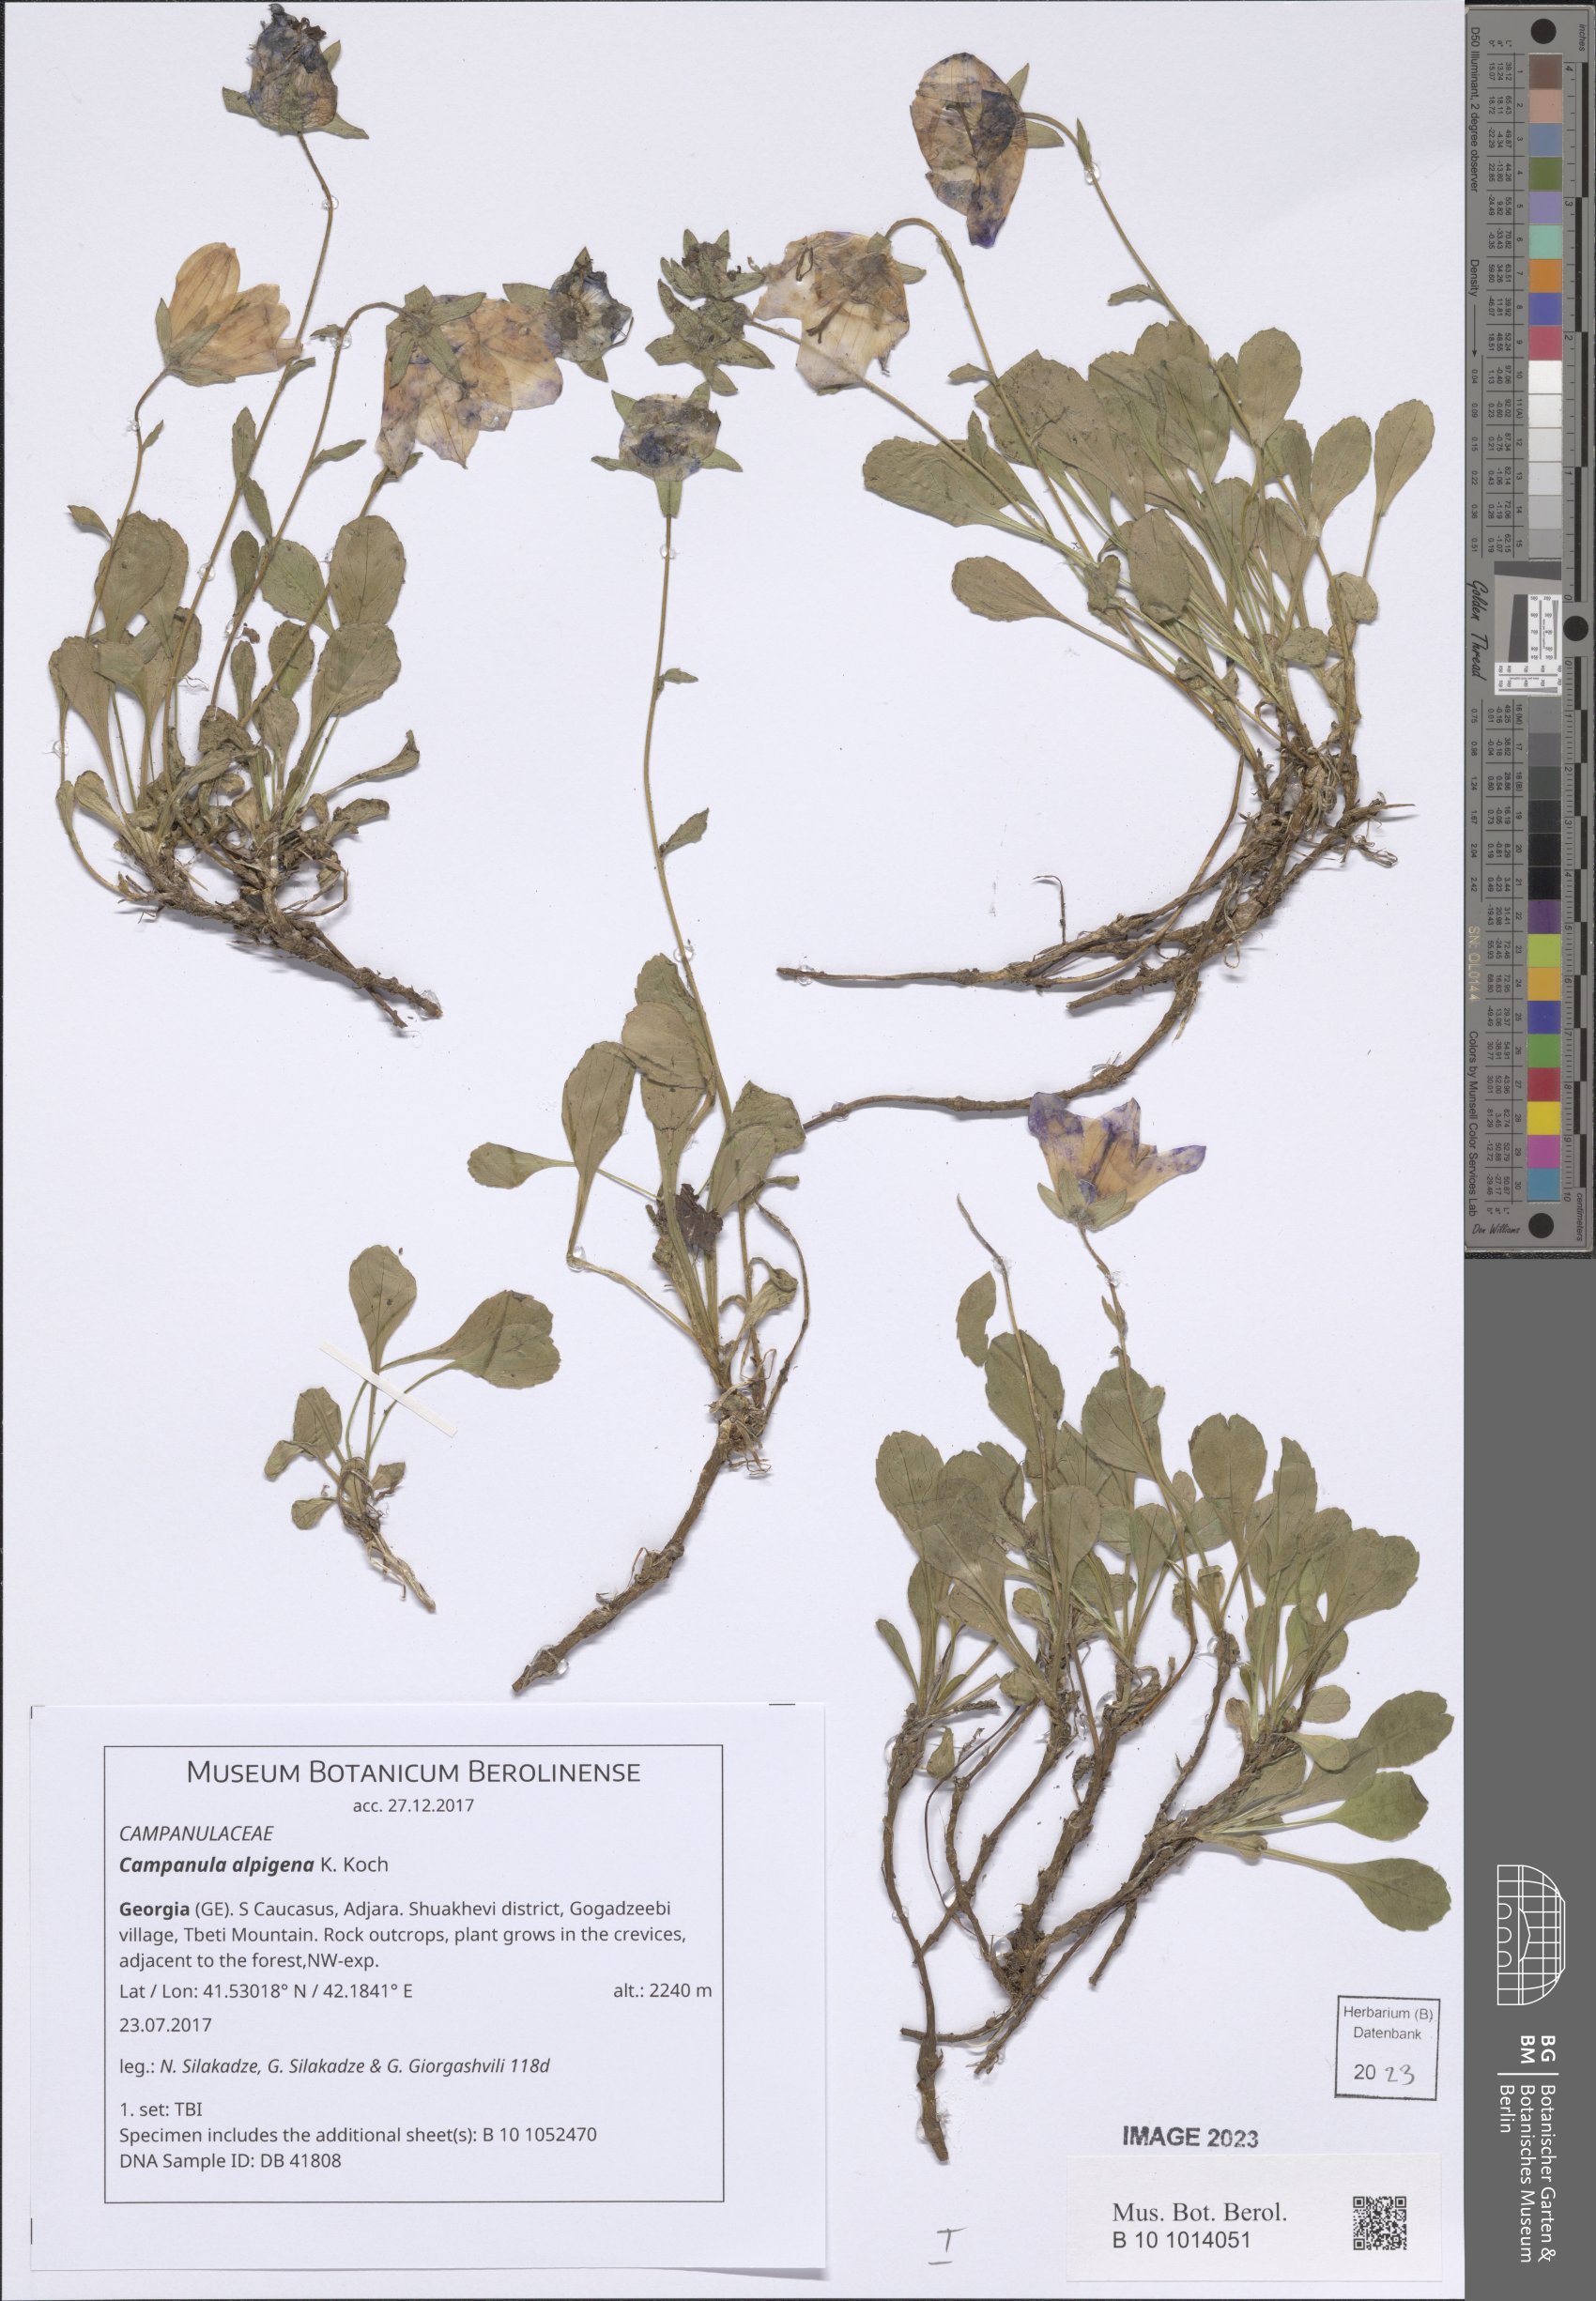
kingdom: Plantae
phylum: Tracheophyta
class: Magnoliopsida
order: Asterales
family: Campanulaceae
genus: Campanula
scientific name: Campanula saxifraga
